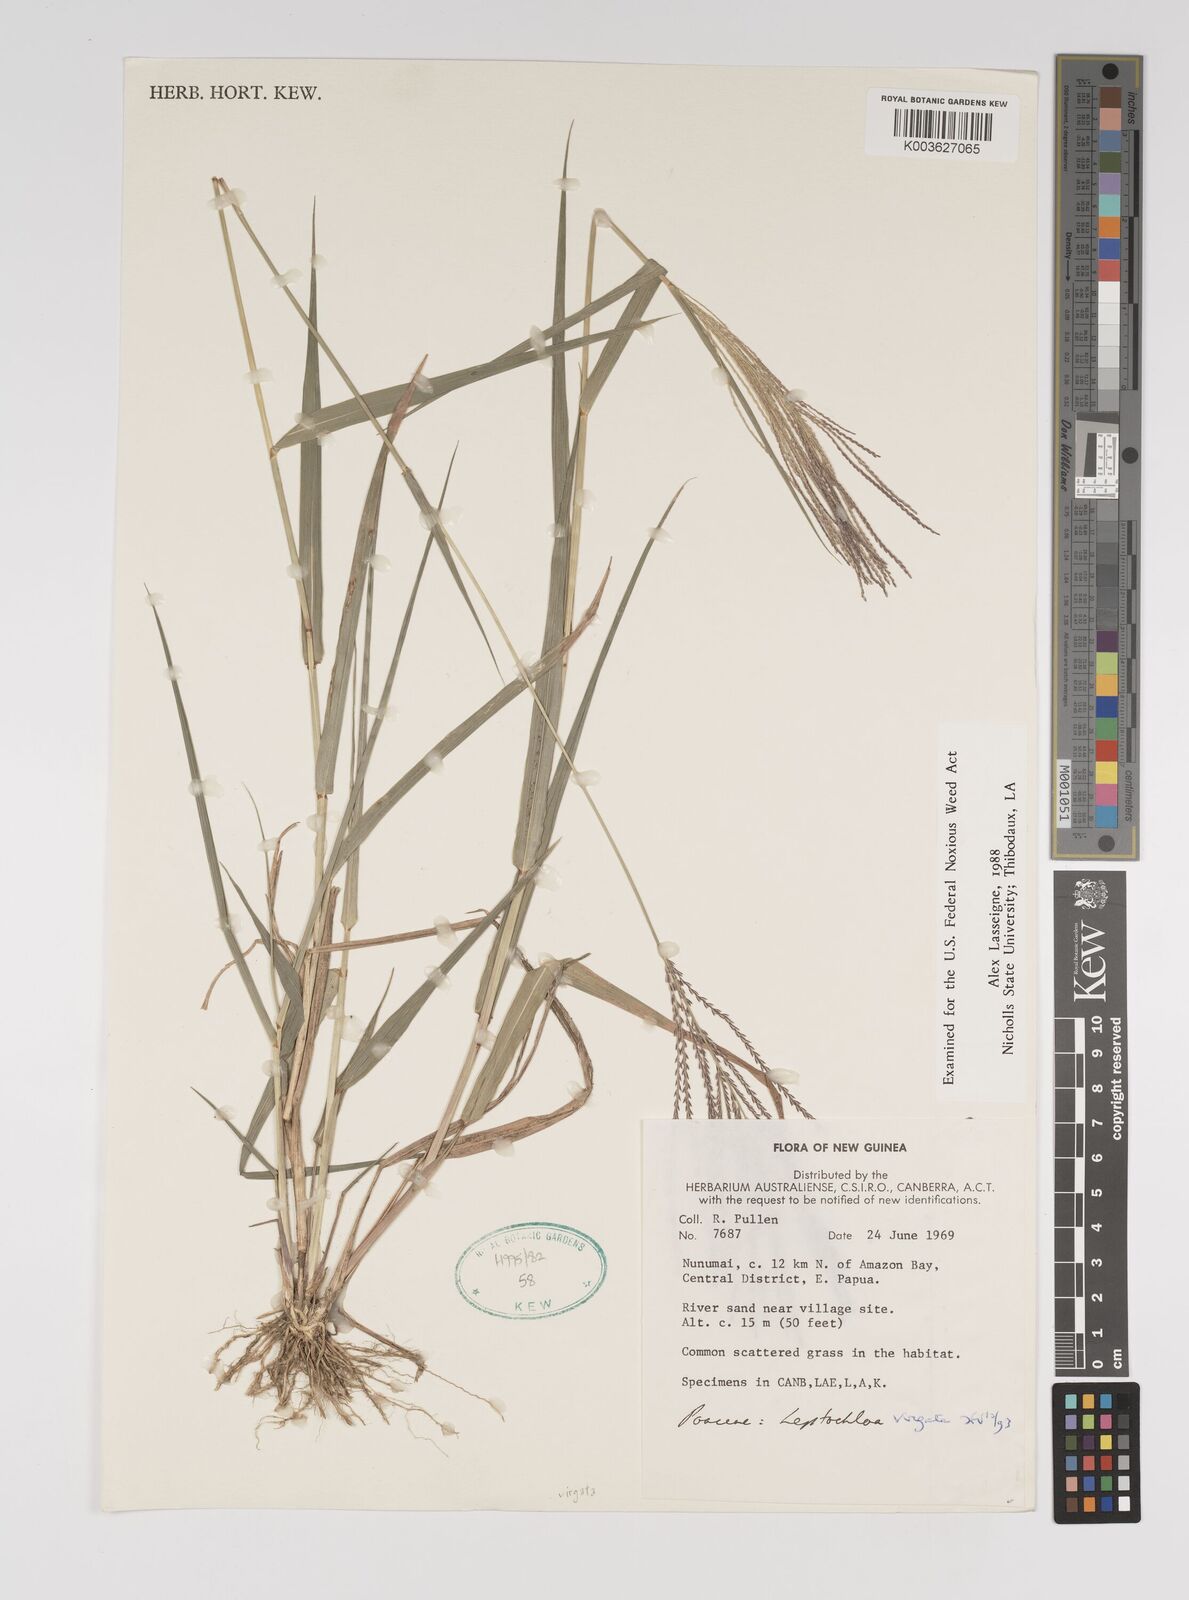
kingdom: Plantae
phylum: Tracheophyta
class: Liliopsida
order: Poales
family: Poaceae
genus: Leptochloa
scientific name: Leptochloa
